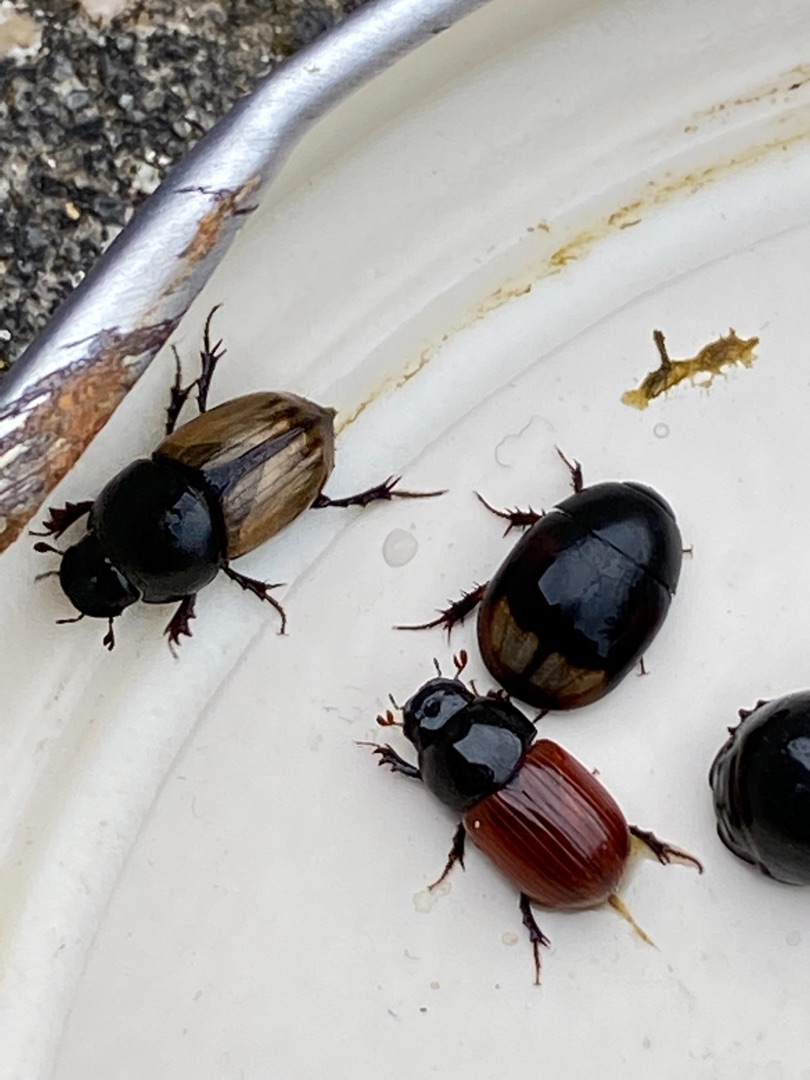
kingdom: Animalia
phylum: Arthropoda
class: Insecta
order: Coleoptera
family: Scarabaeidae
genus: Colobopterus
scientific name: Colobopterus erraticus
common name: Vagabonderende møgbille
